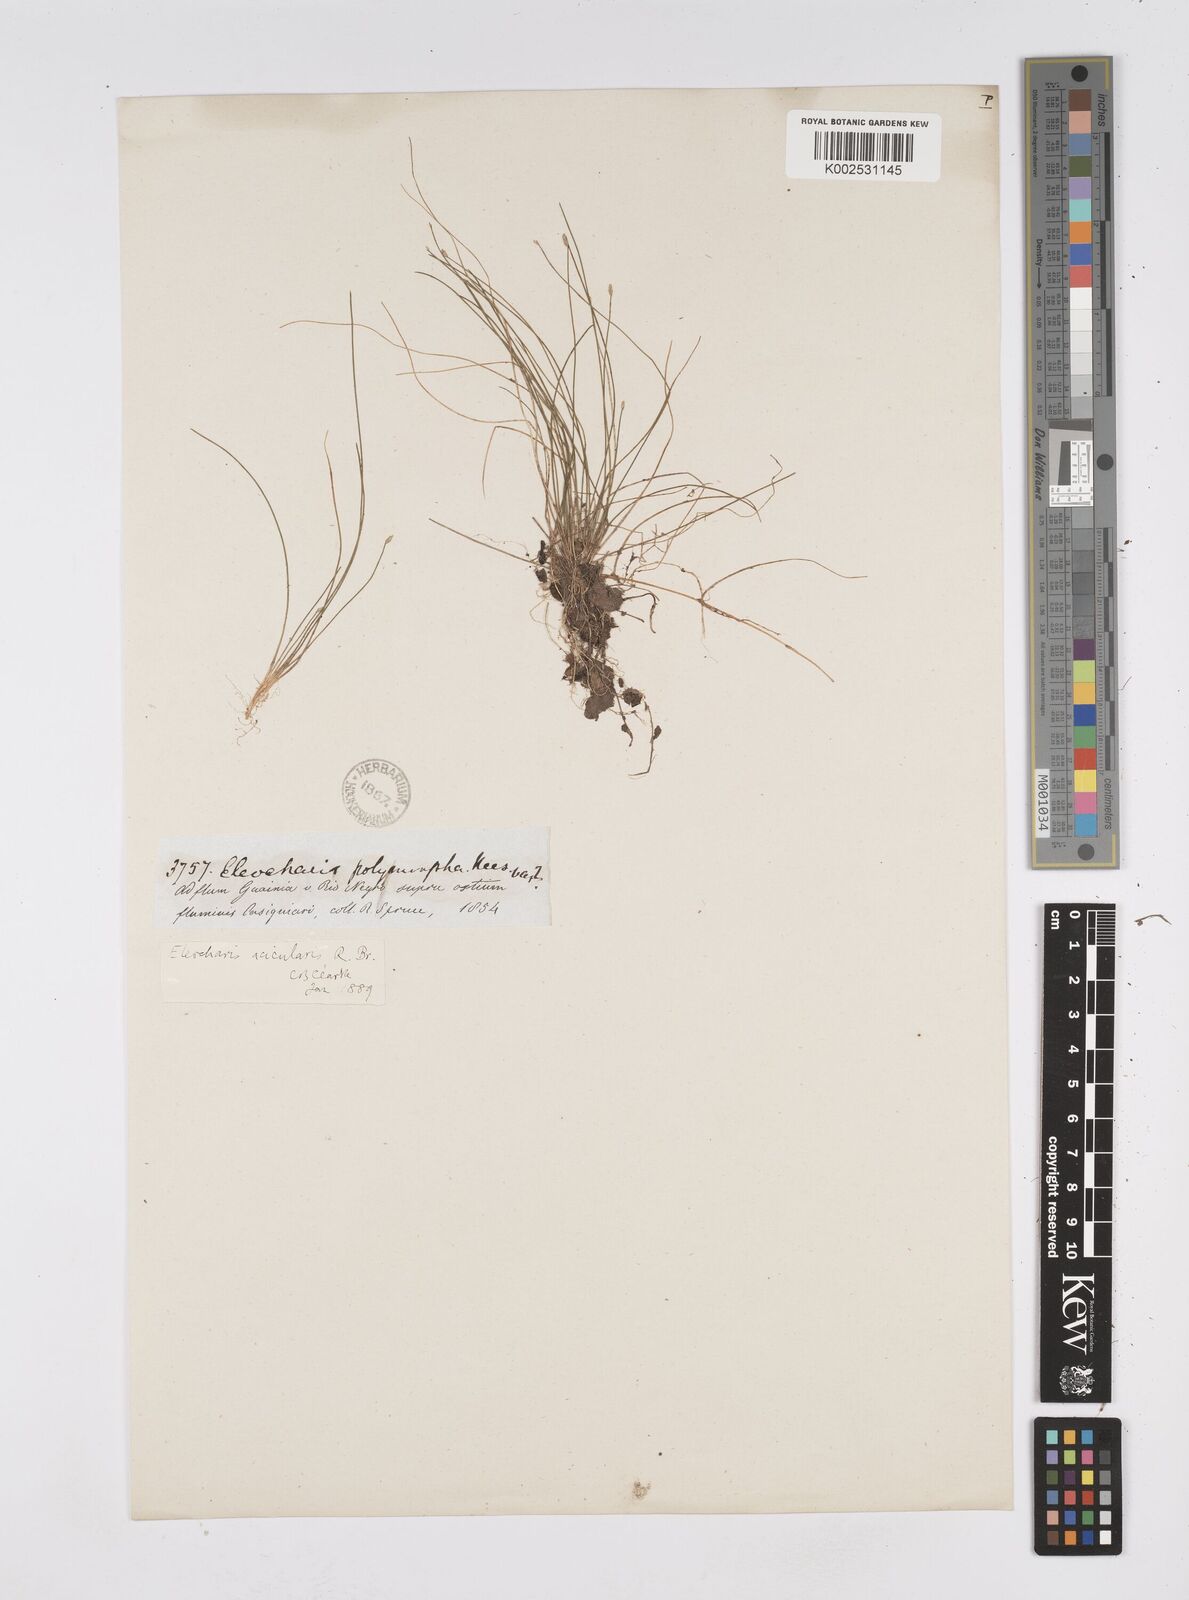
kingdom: Plantae
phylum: Tracheophyta
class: Liliopsida
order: Poales
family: Cyperaceae
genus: Eleocharis
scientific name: Eleocharis acicularis
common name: Needle spike-rush
